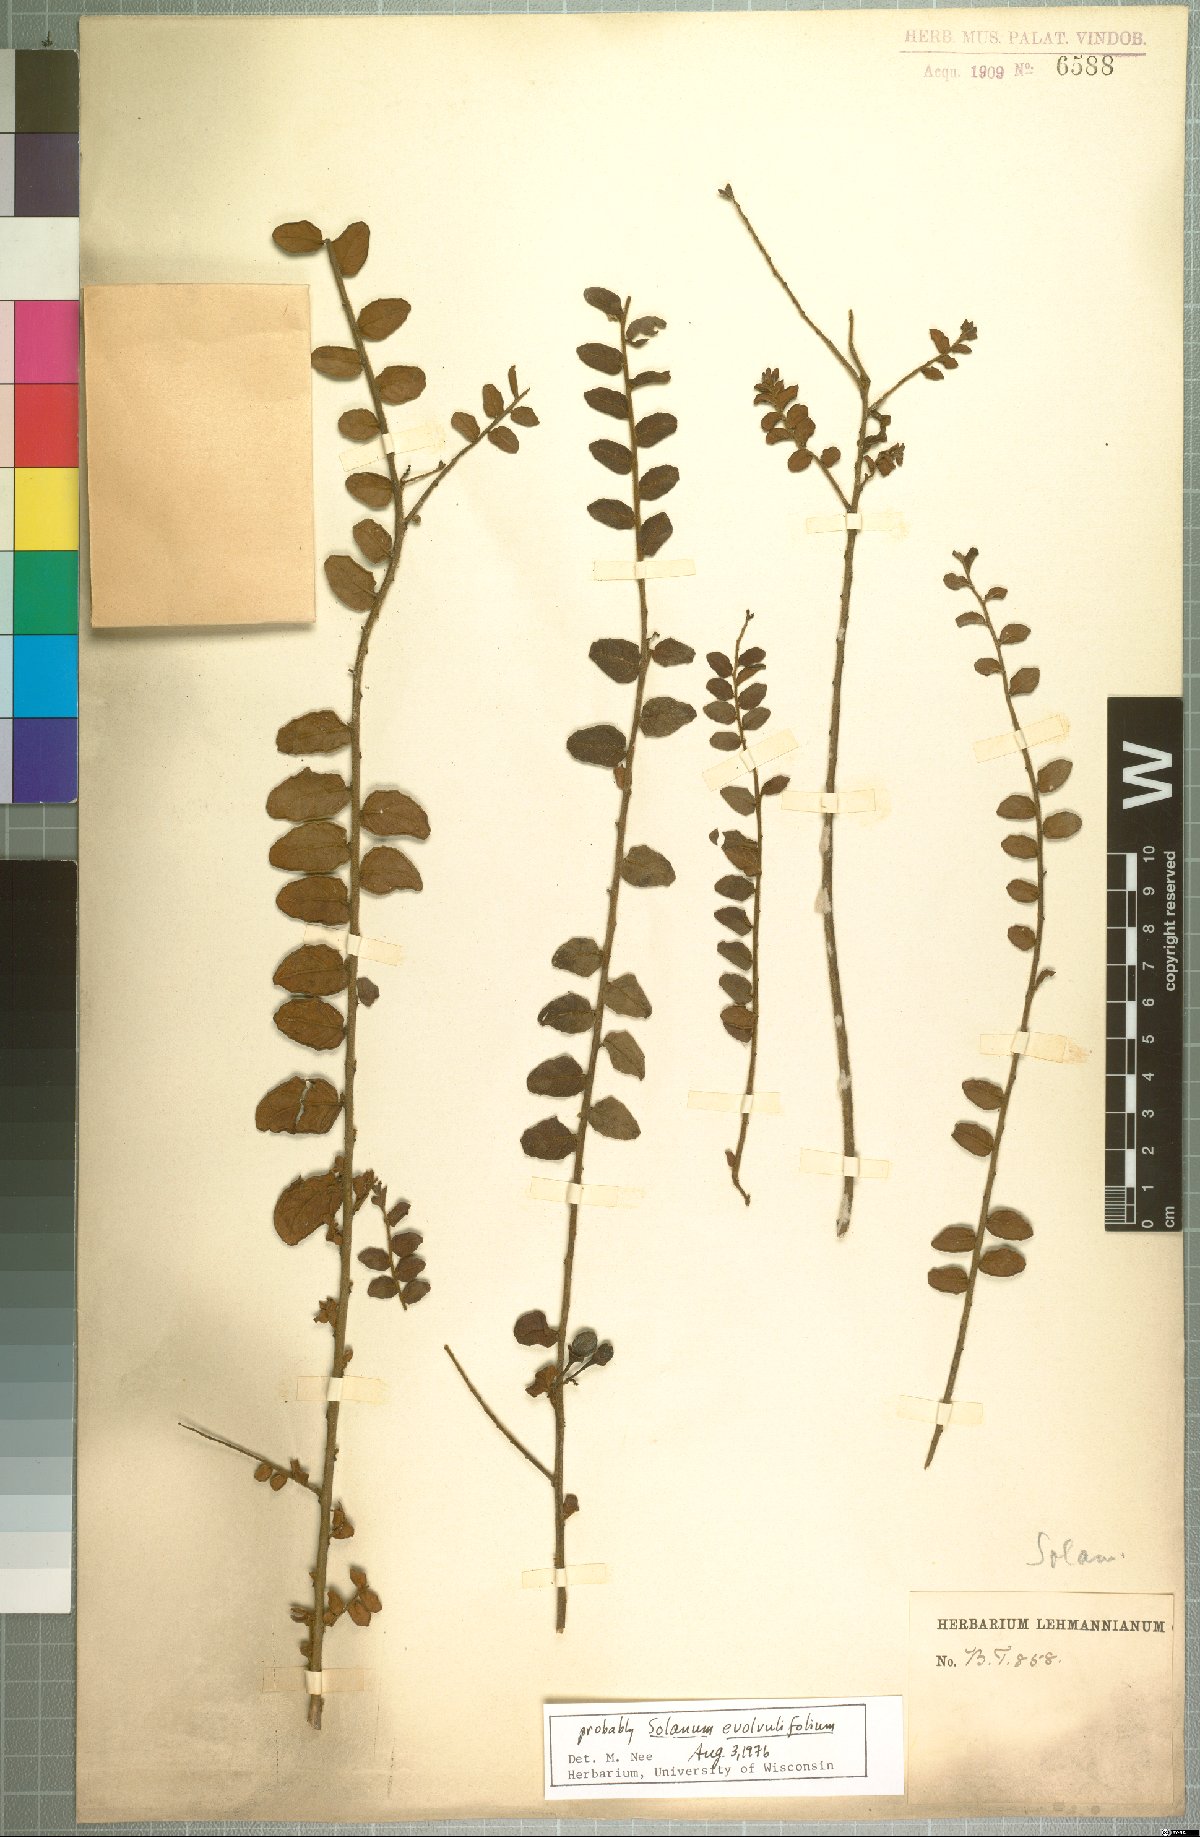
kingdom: Plantae
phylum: Tracheophyta
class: Magnoliopsida
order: Solanales
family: Solanaceae
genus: Solanum
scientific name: Solanum evolvulifolium
